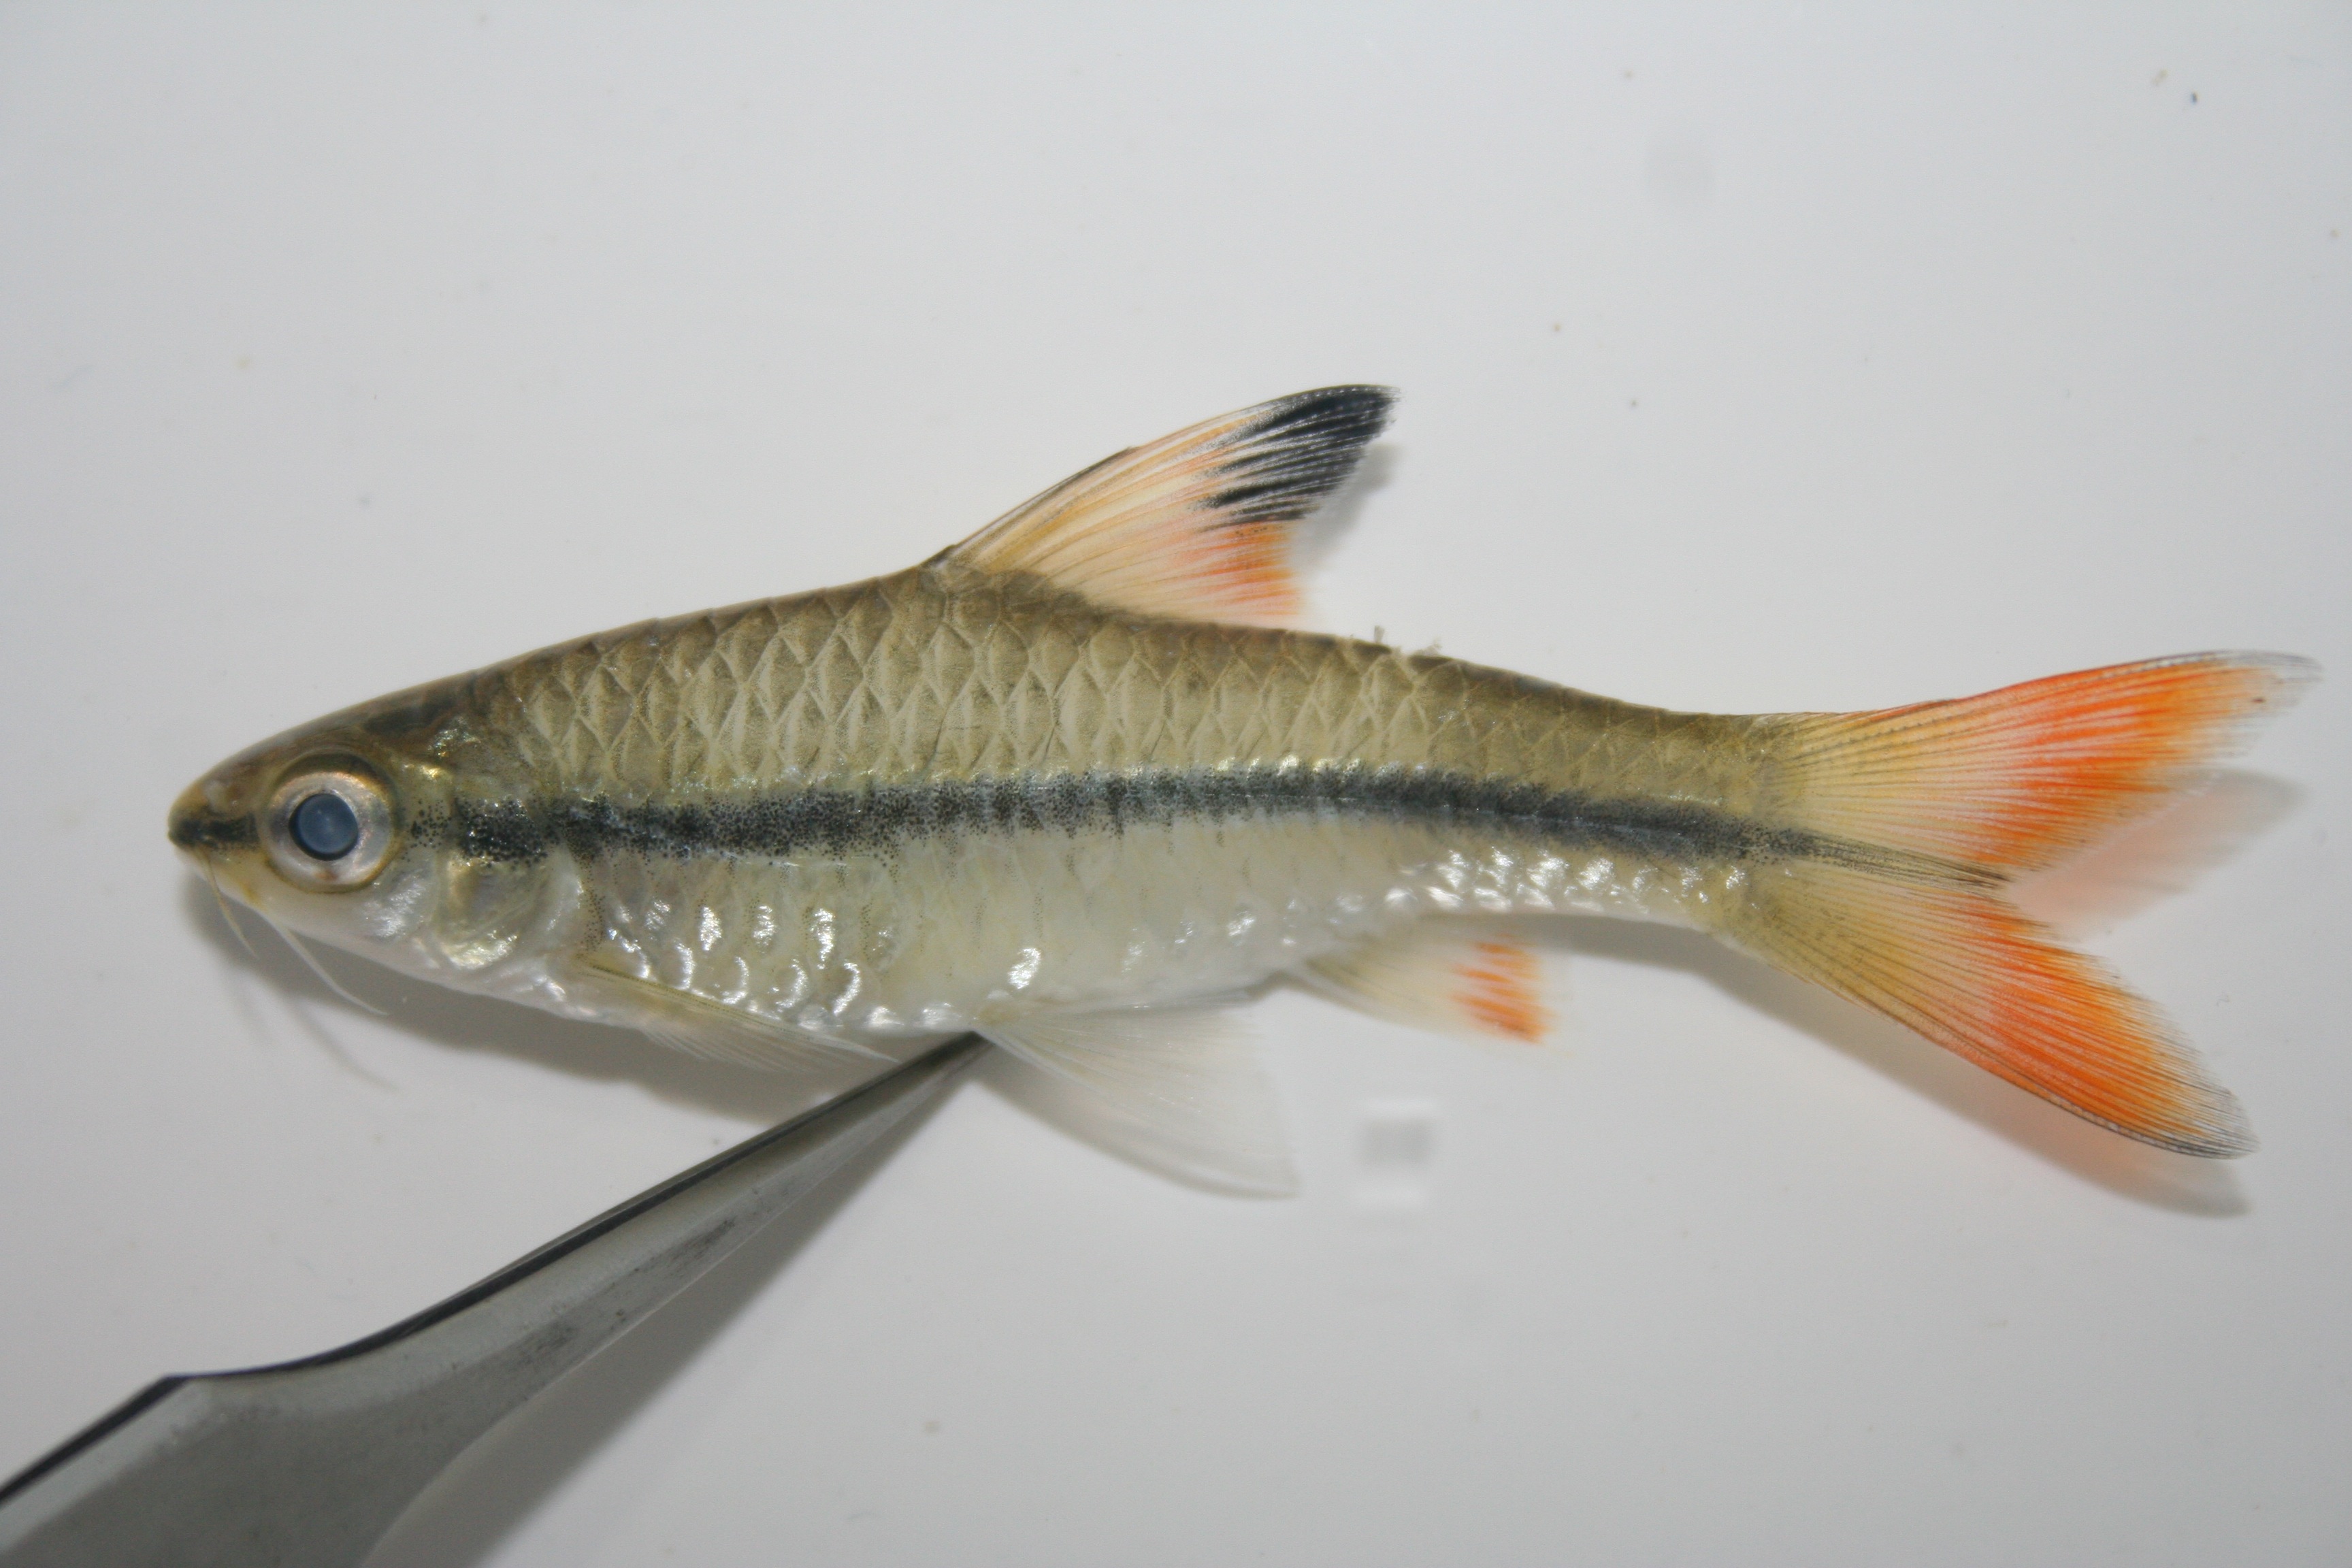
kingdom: Animalia
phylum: Chordata
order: Cypriniformes
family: Cyprinidae
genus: Enteromius
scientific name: Enteromius holotaenia
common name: Spotscale barb
